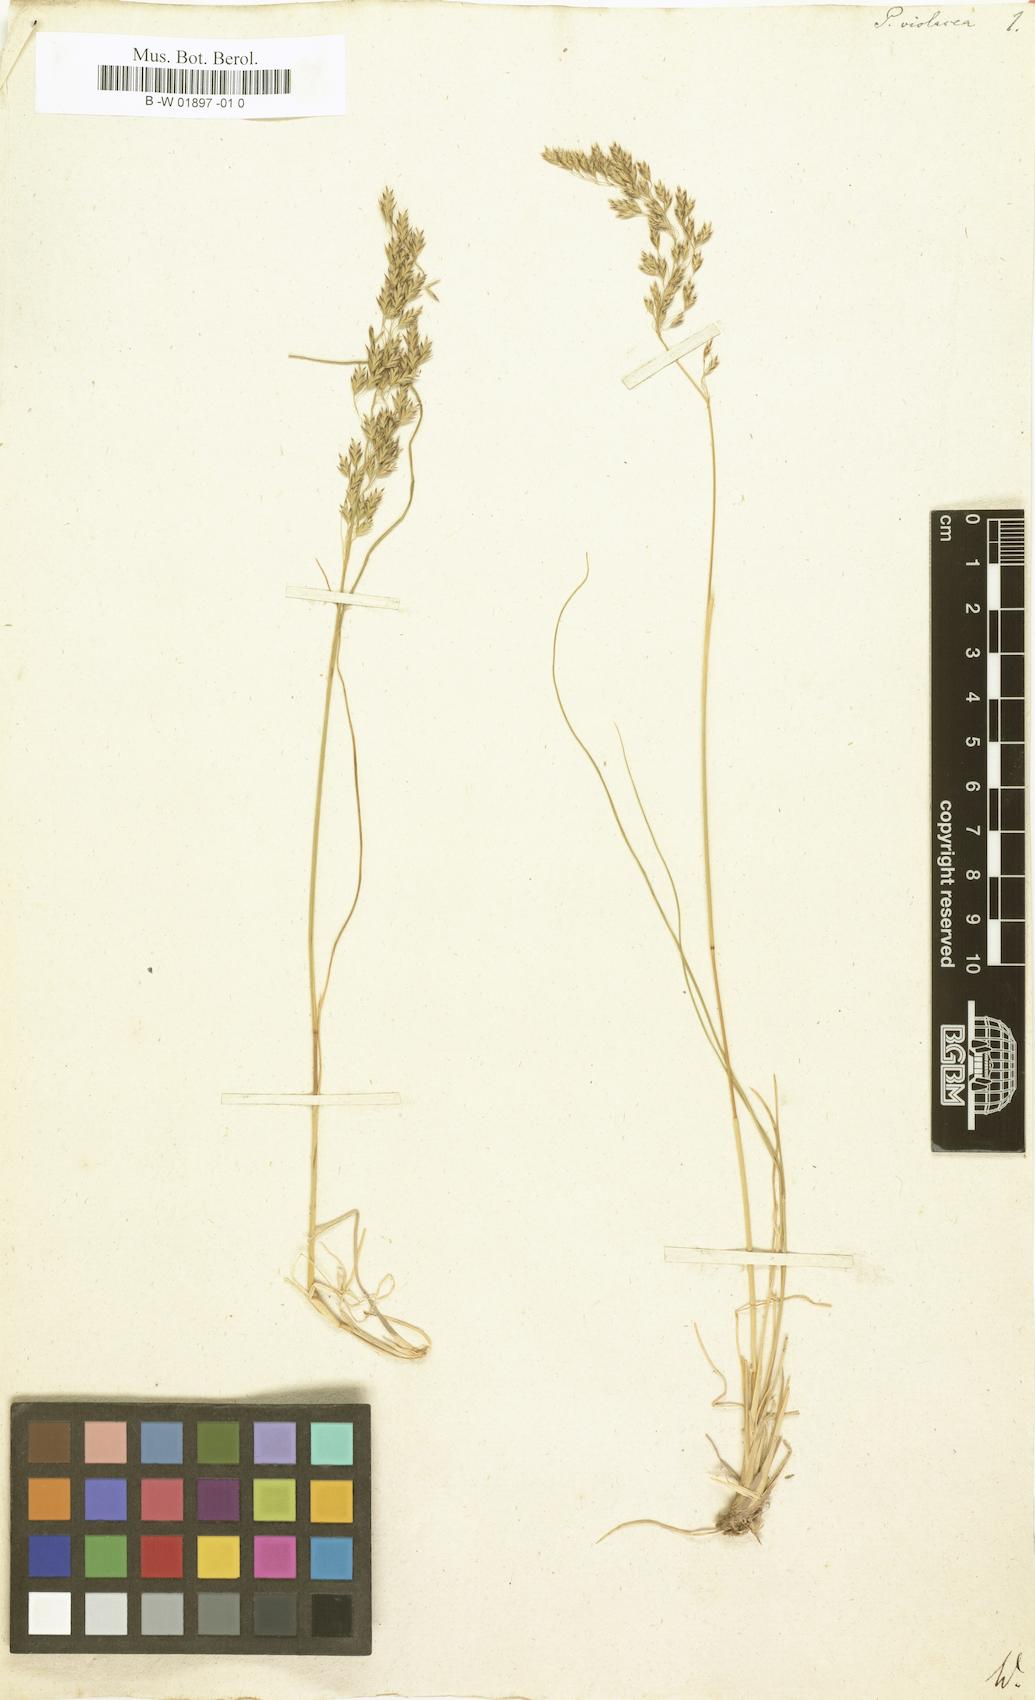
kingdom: Plantae
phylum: Tracheophyta
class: Liliopsida
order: Poales
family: Poaceae
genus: Bellardiochloa
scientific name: Bellardiochloa variegata
